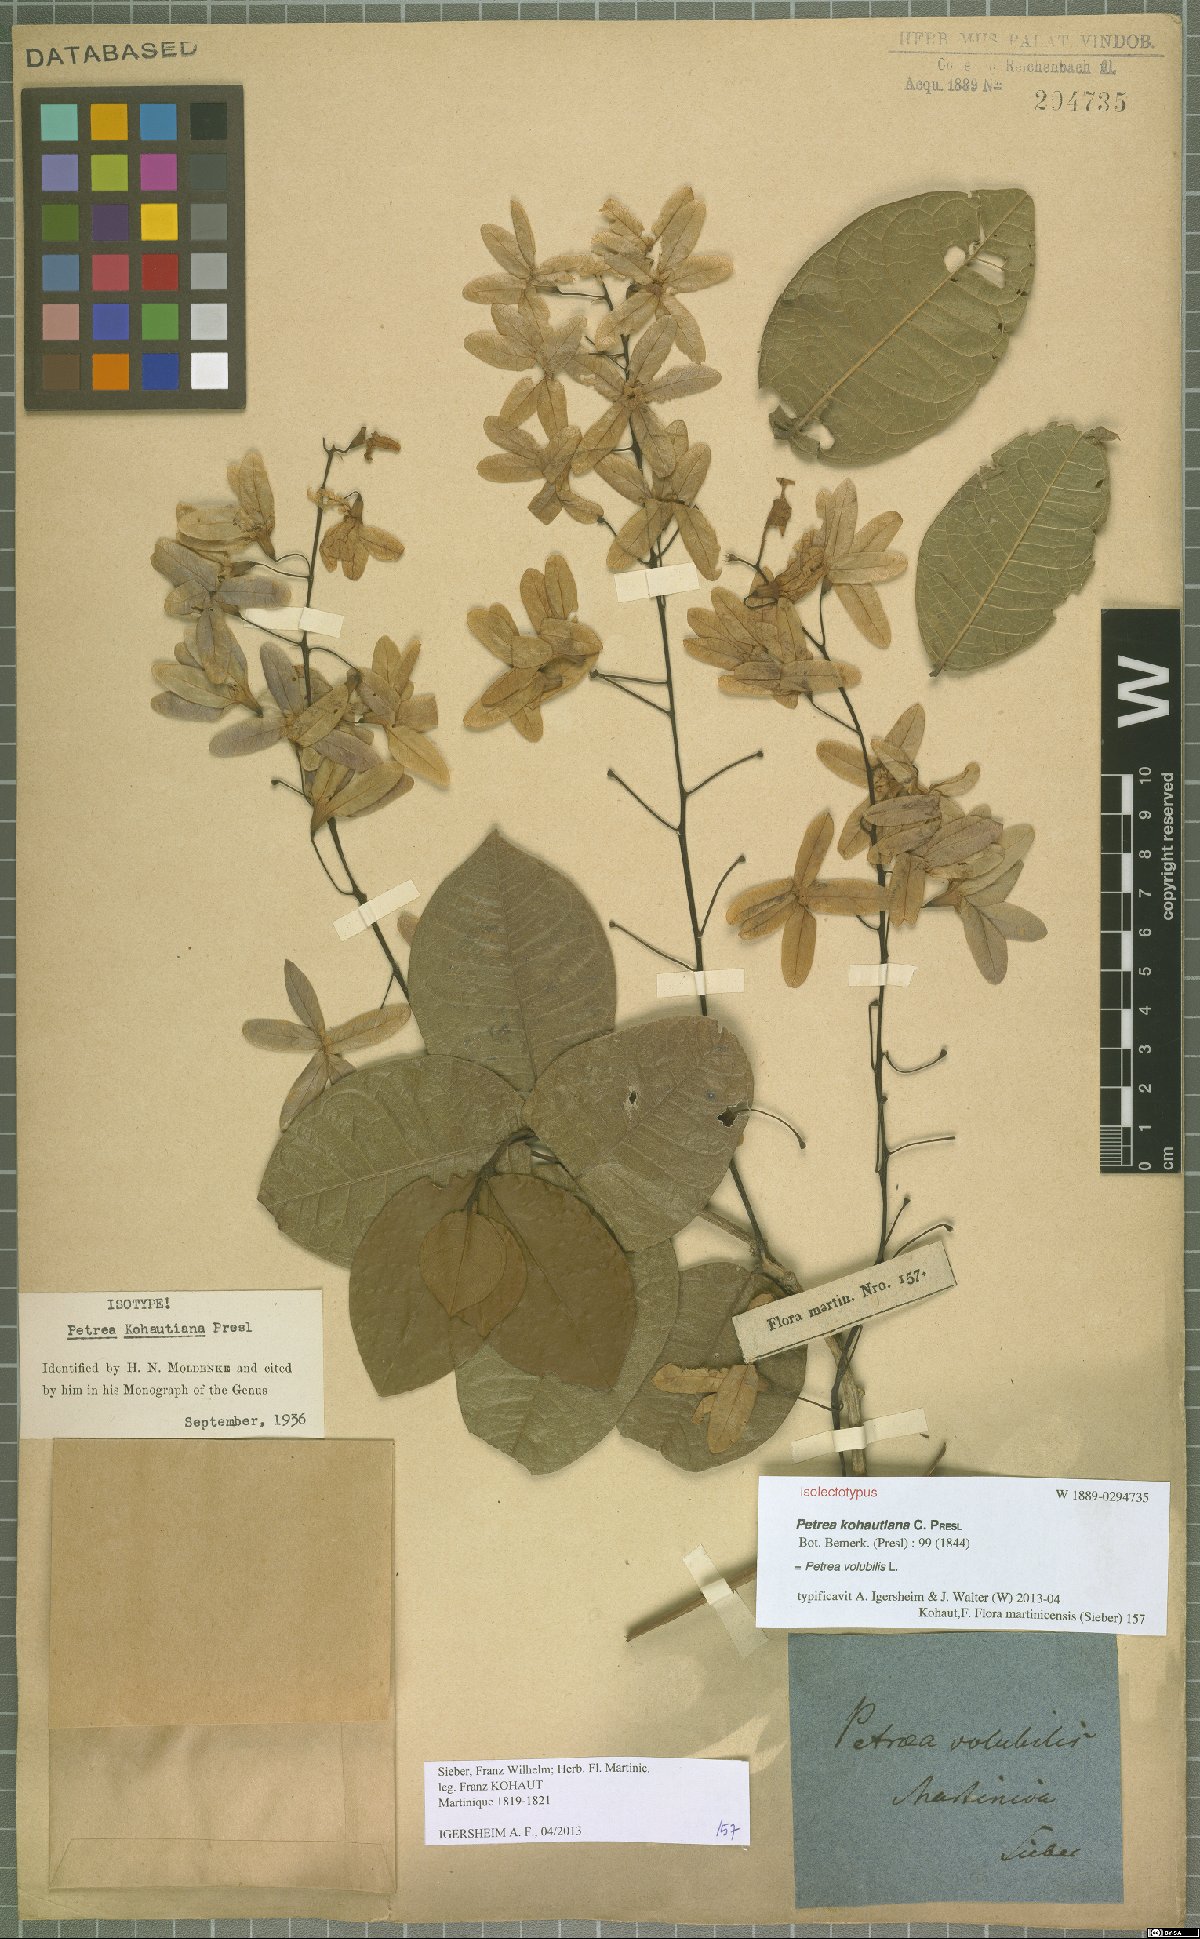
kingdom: Plantae
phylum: Tracheophyta
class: Magnoliopsida
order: Lamiales
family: Verbenaceae
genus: Petrea
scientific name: Petrea volubilis
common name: Queen's-wreath
